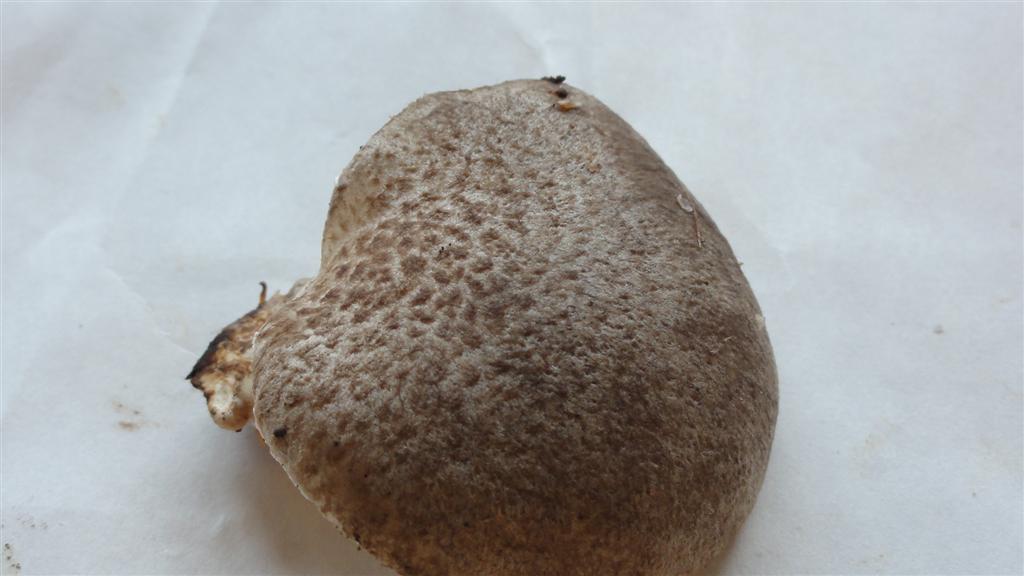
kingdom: Fungi
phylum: Basidiomycota
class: Agaricomycetes
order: Agaricales
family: Pleurotaceae
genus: Pleurotus
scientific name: Pleurotus dryinus
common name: korkagtig østershat
